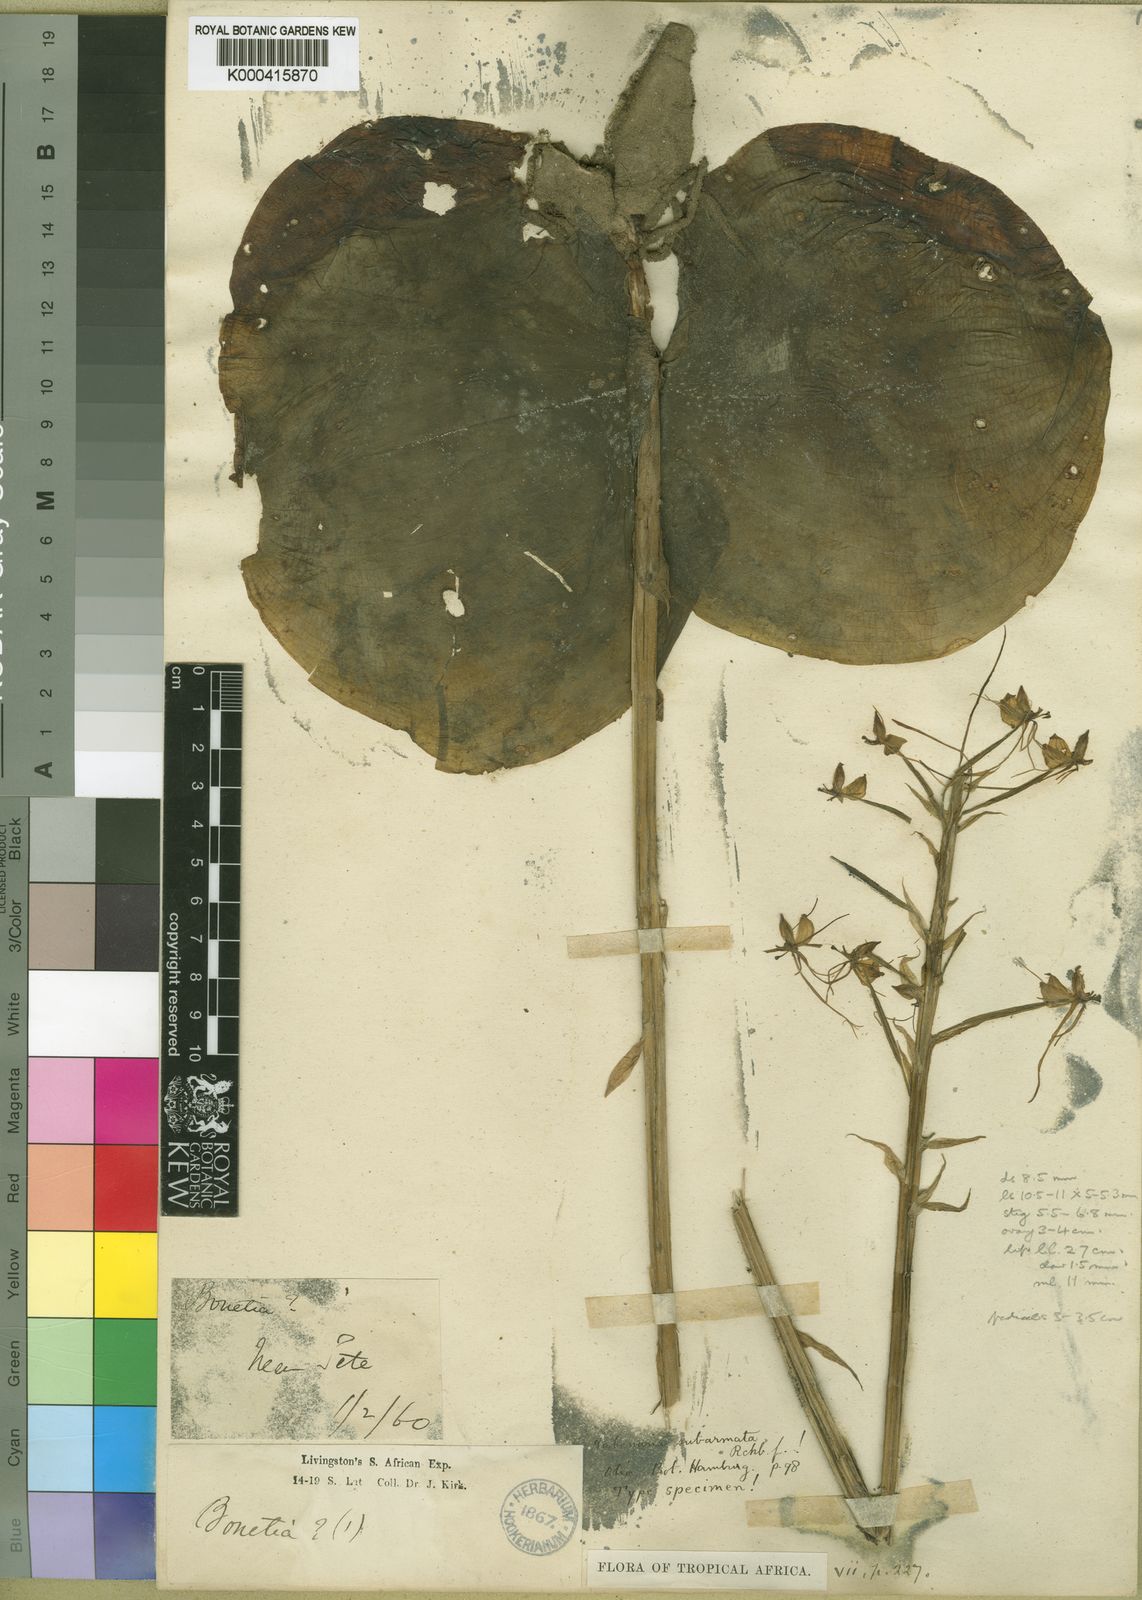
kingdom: Plantae
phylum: Tracheophyta
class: Liliopsida
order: Asparagales
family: Orchidaceae
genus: Habenaria
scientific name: Habenaria subarmata
